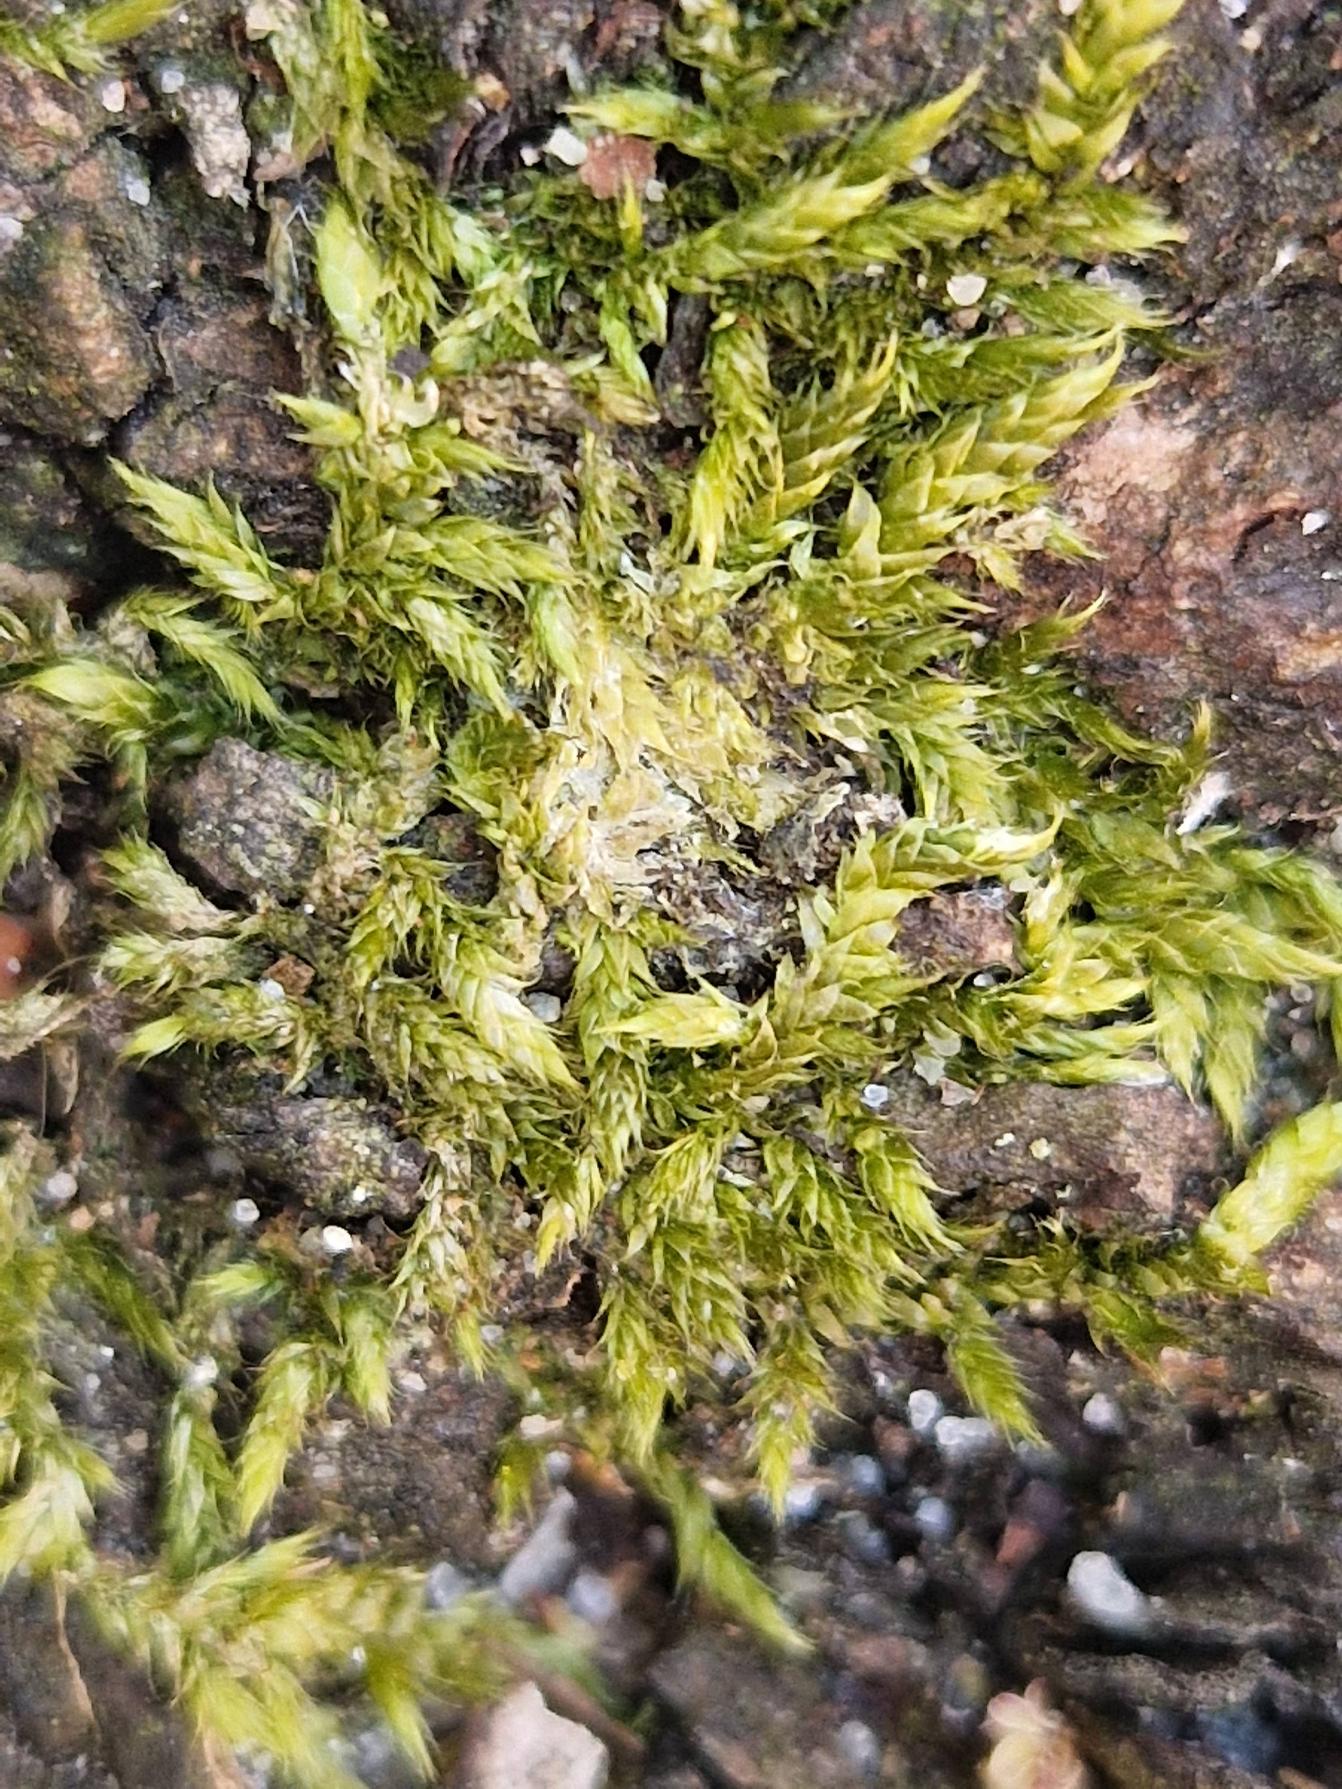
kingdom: Plantae
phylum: Bryophyta
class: Bryopsida
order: Hypnales
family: Hypnaceae
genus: Hypnum
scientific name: Hypnum cupressiforme
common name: Almindelig cypresmos
